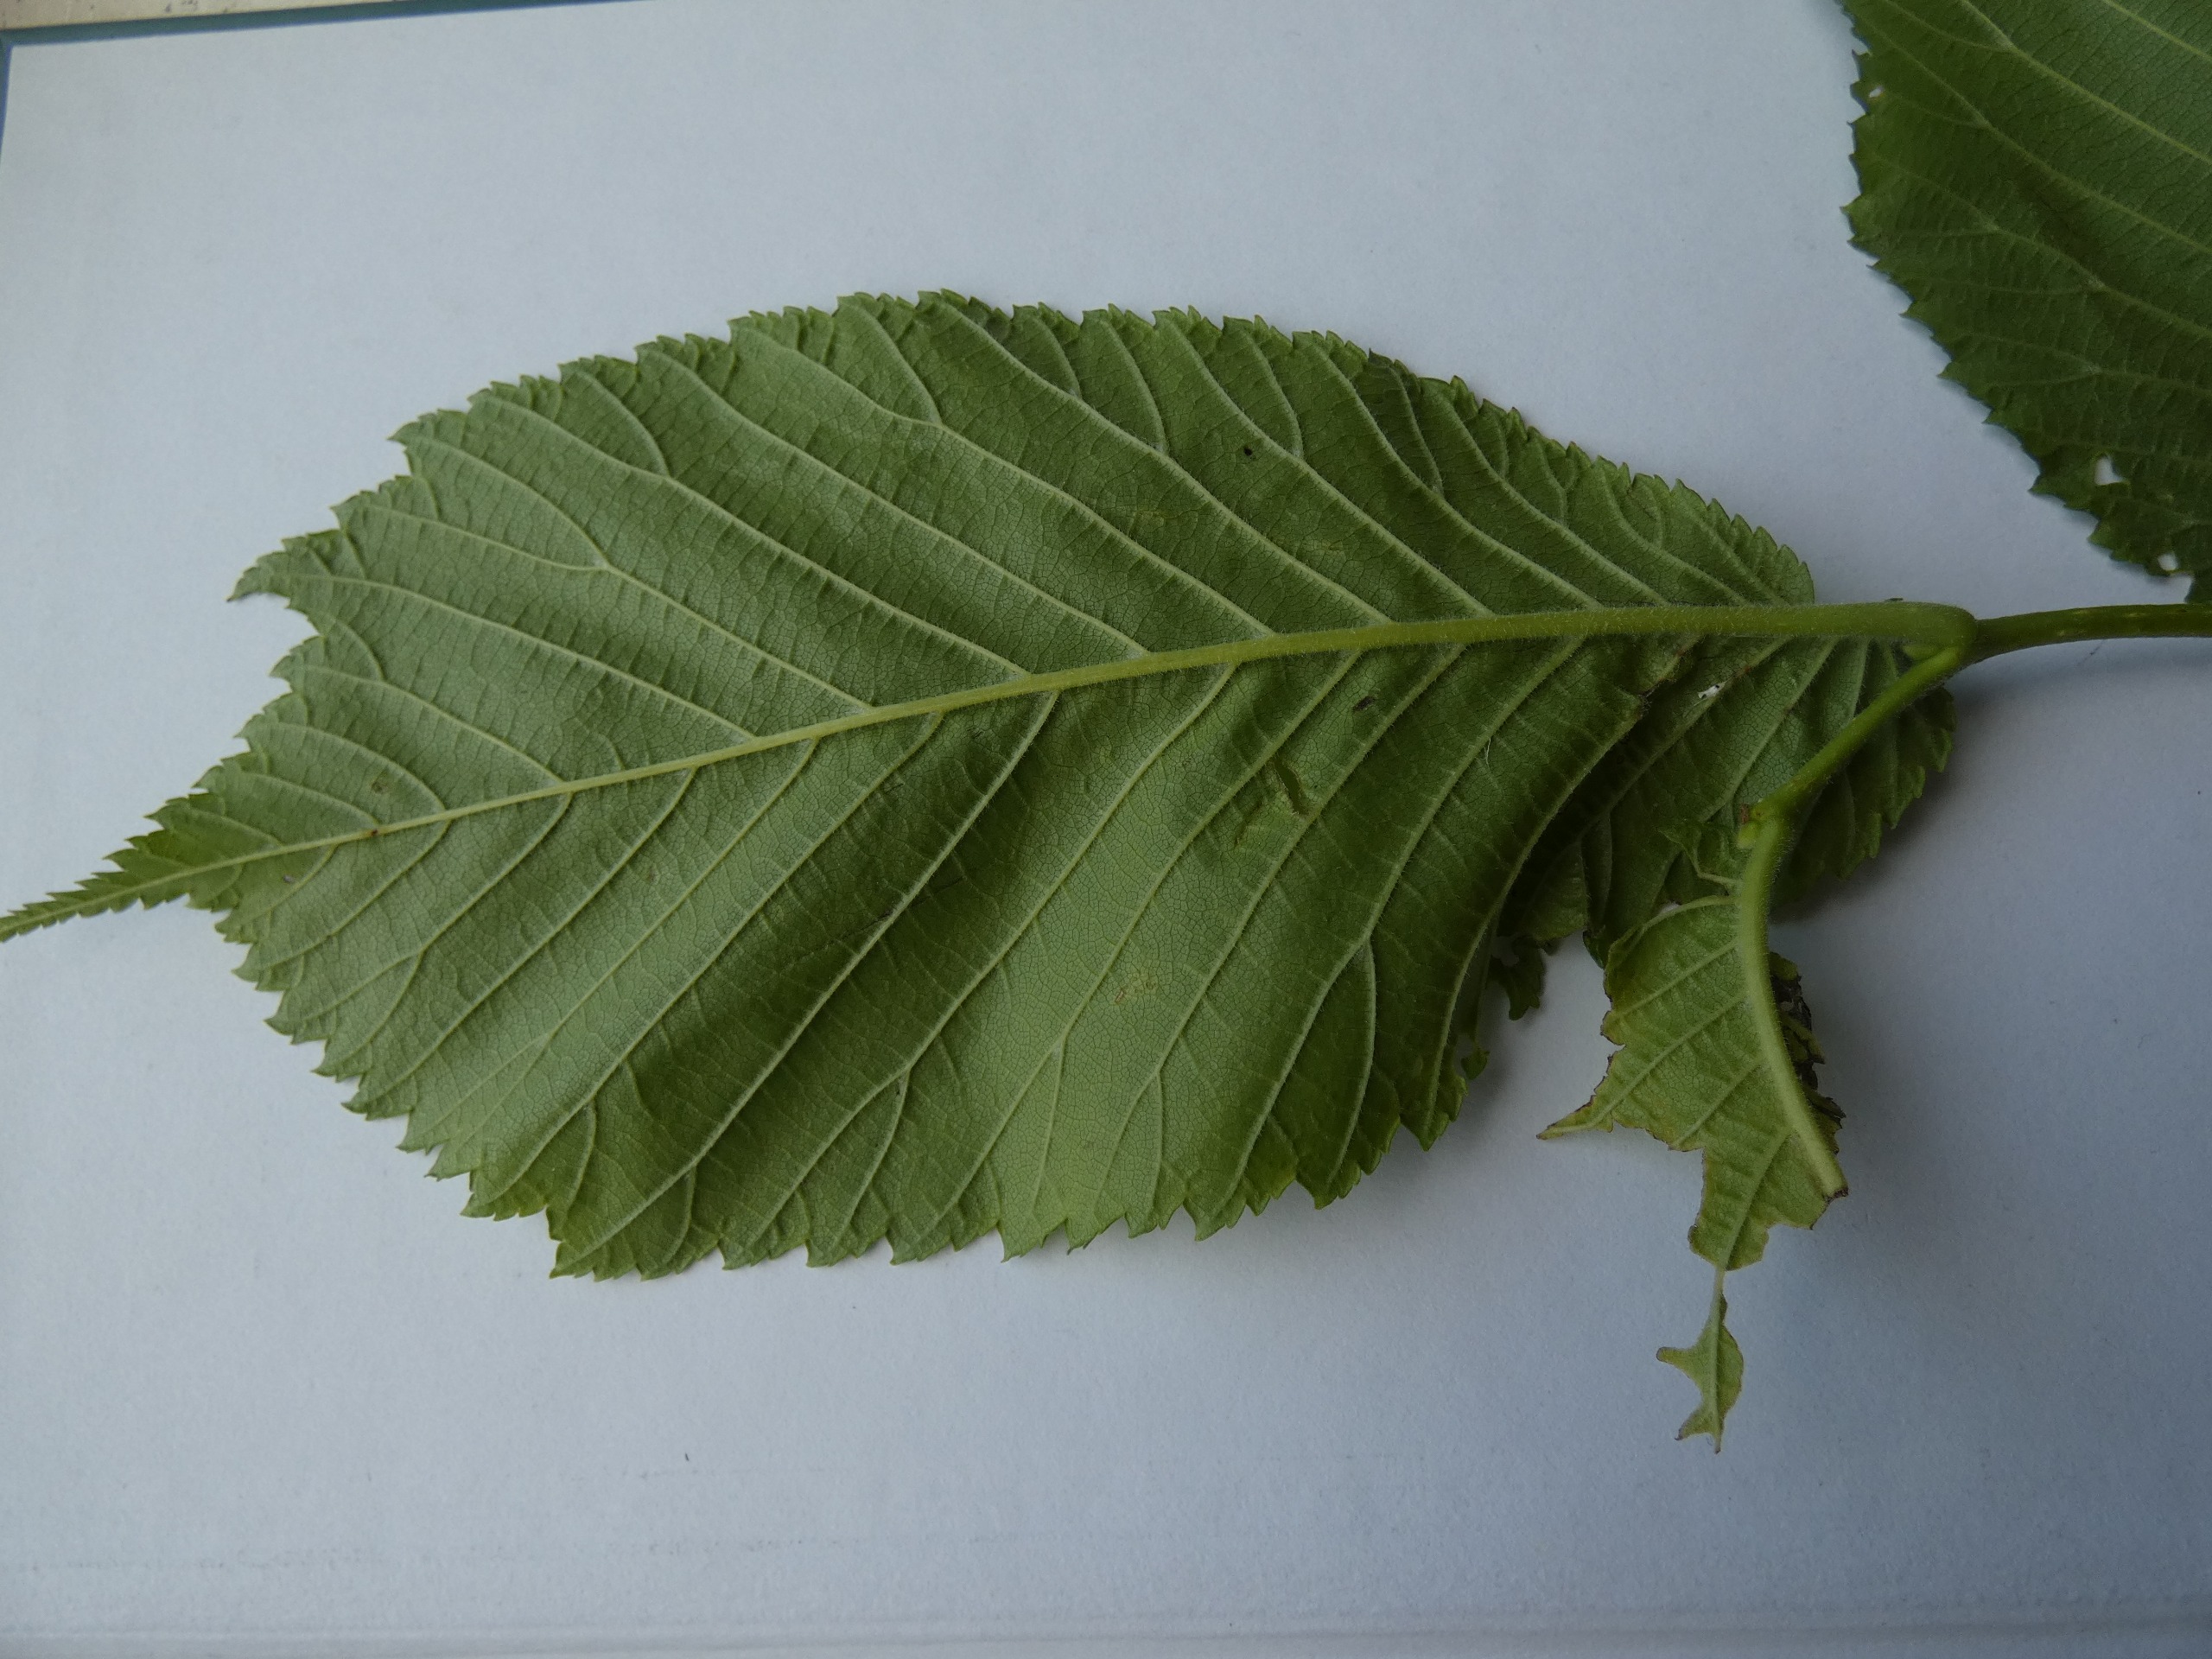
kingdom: Plantae
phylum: Tracheophyta
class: Magnoliopsida
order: Rosales
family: Ulmaceae
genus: Ulmus
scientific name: Ulmus glabra
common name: Skov-elm/storbladet elm
